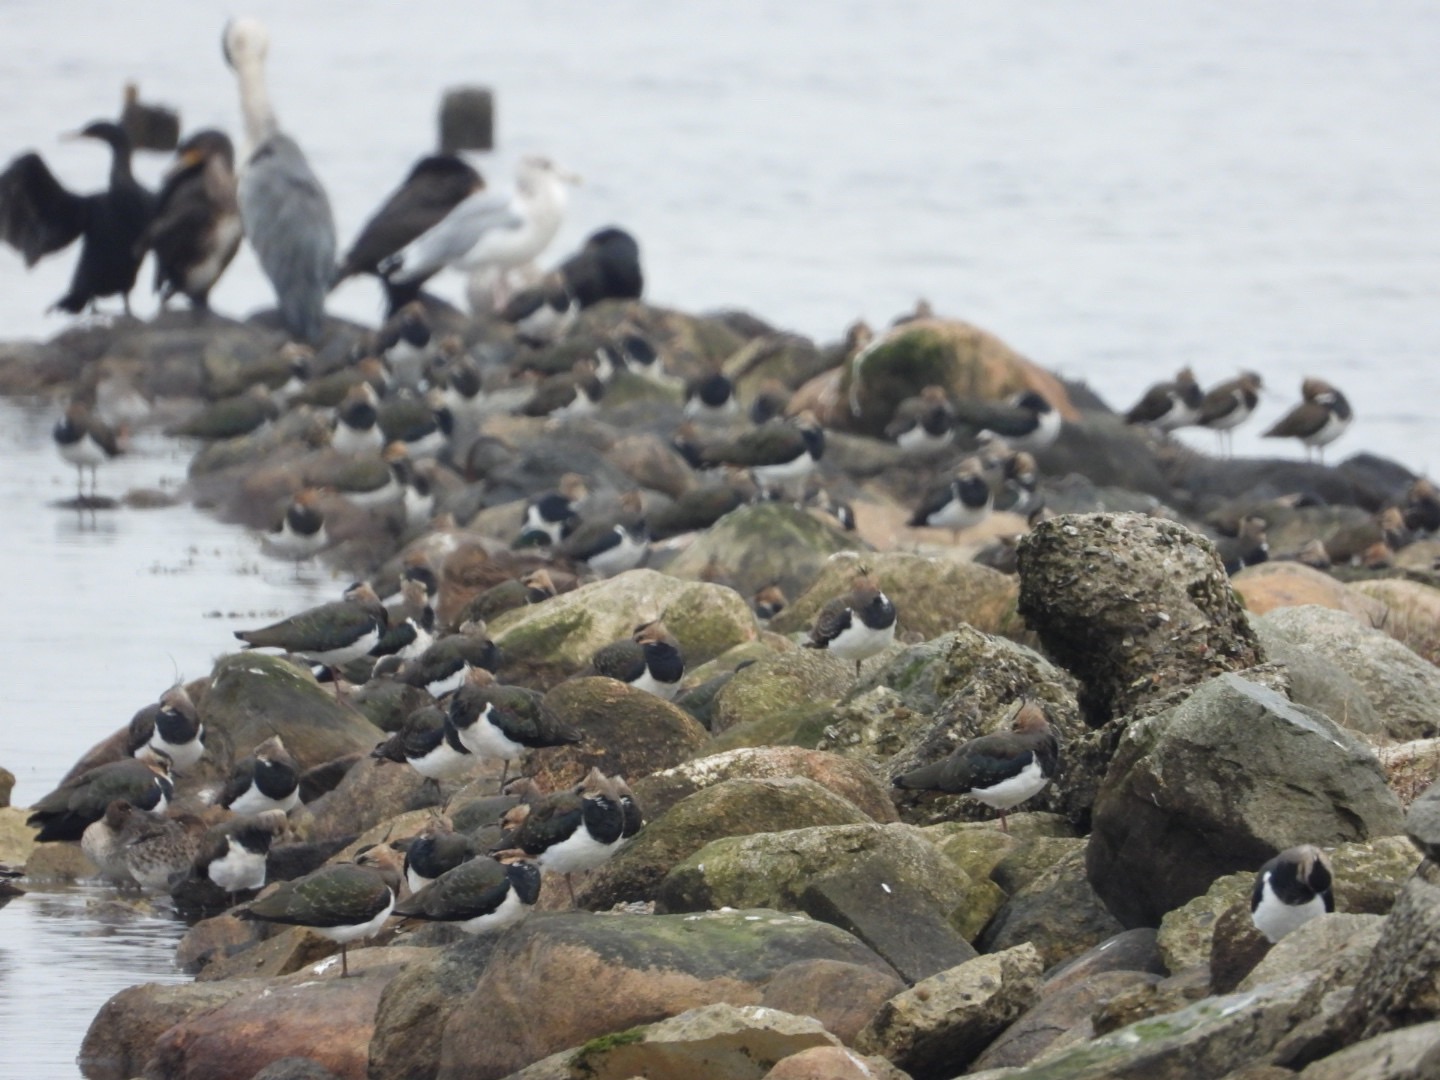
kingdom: Animalia
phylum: Chordata
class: Aves
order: Charadriiformes
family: Charadriidae
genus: Vanellus
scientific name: Vanellus vanellus
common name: Vibe
